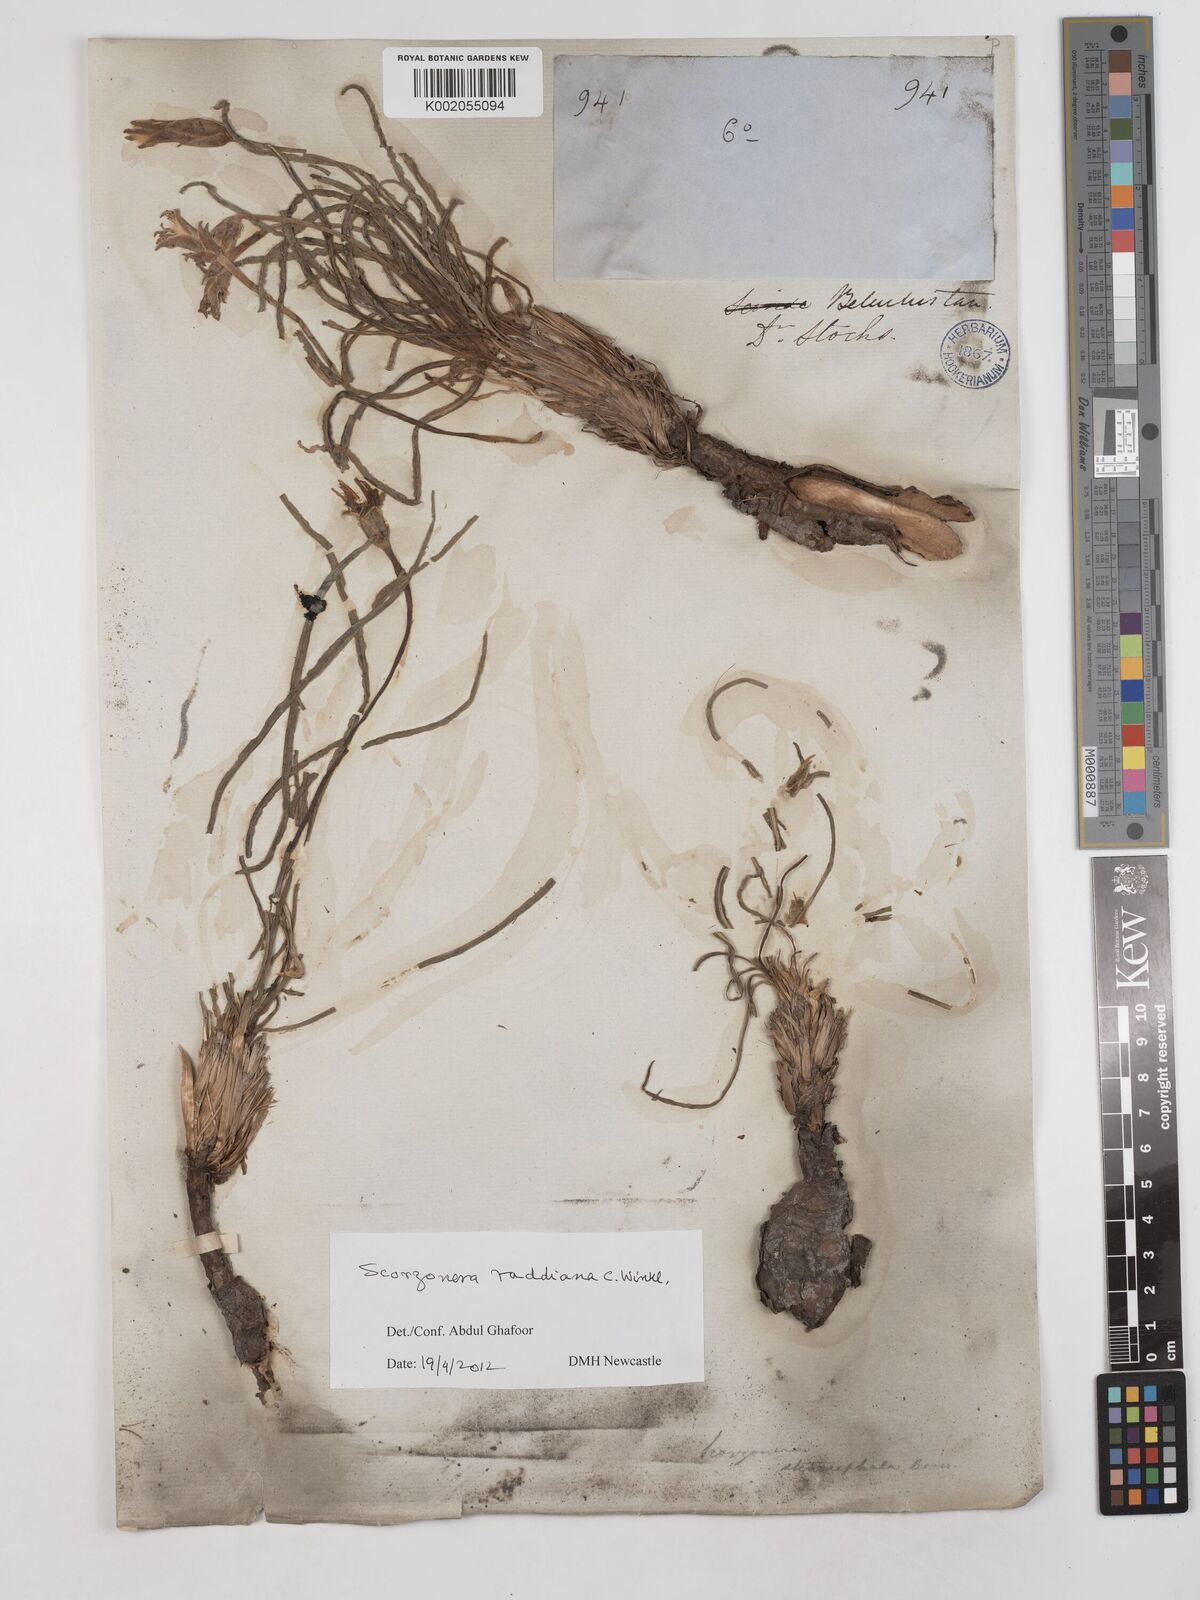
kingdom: Plantae
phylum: Tracheophyta
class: Magnoliopsida
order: Asterales
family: Asteraceae
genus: Candollea
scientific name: Candollea mollis
